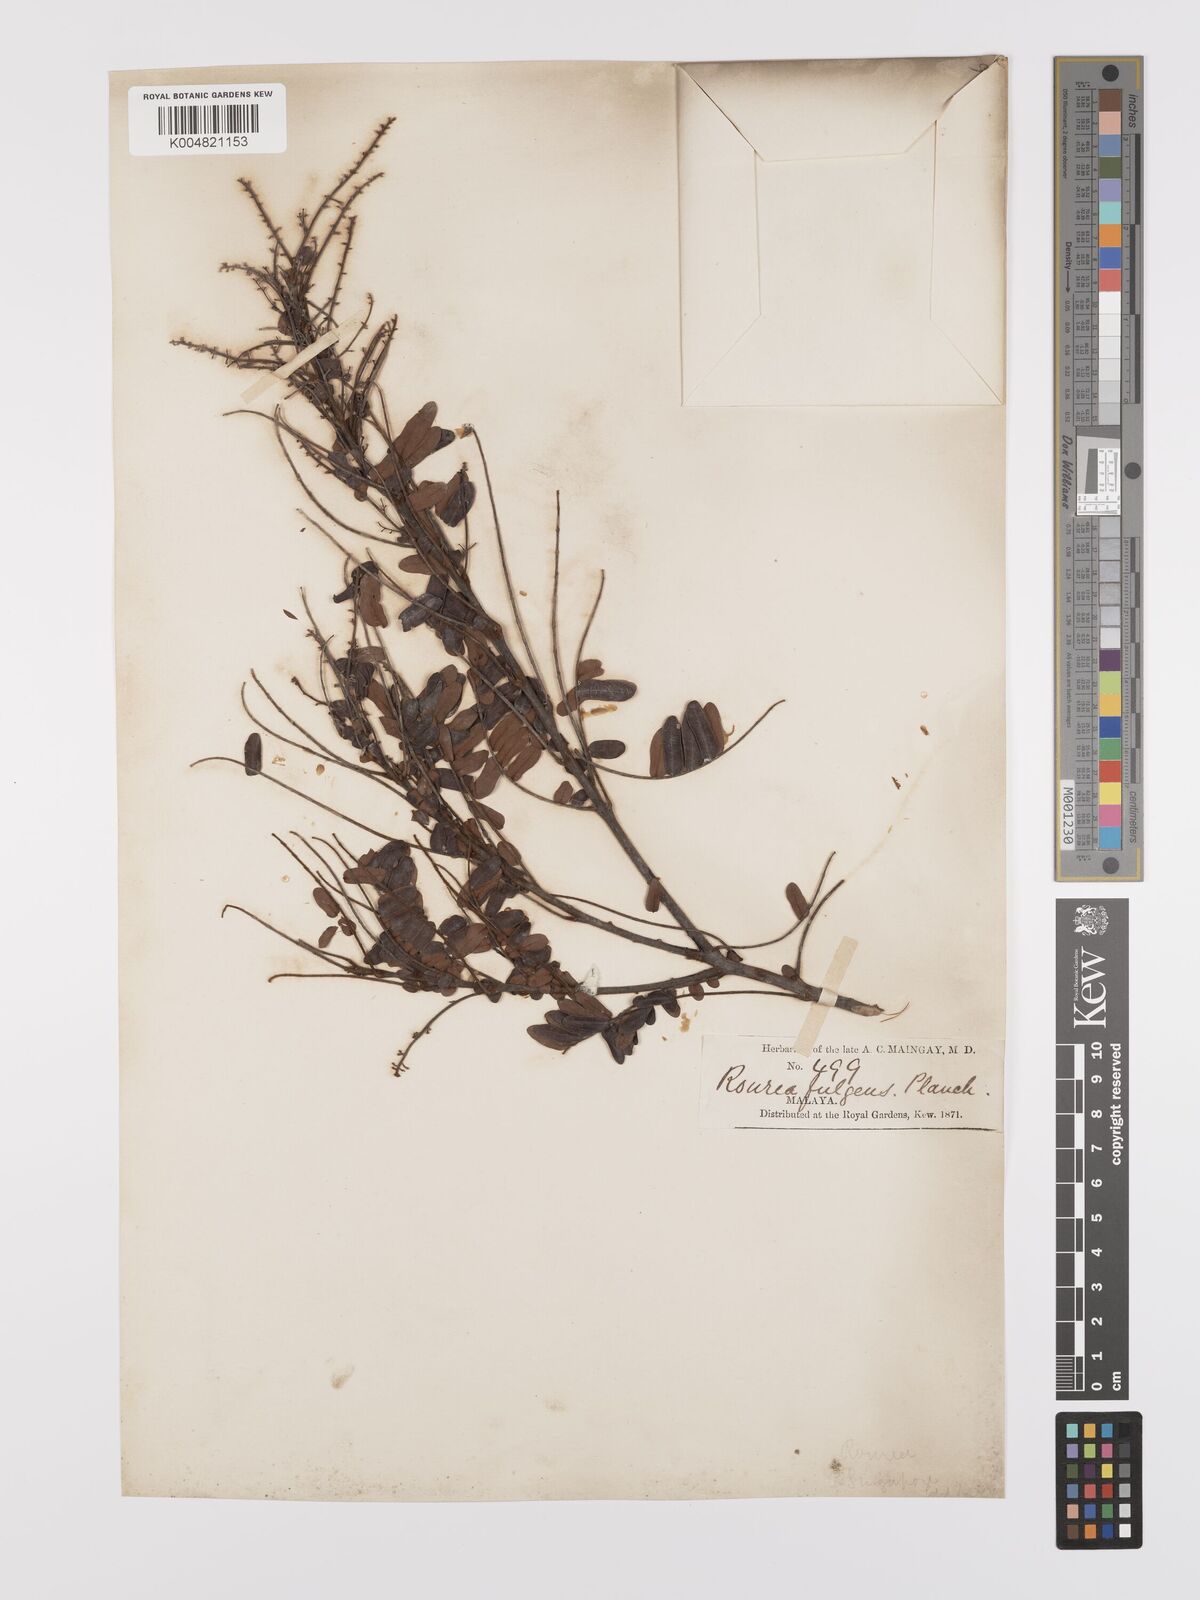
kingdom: Plantae
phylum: Tracheophyta
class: Magnoliopsida
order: Oxalidales
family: Connaraceae
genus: Rourea
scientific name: Rourea fulgens
